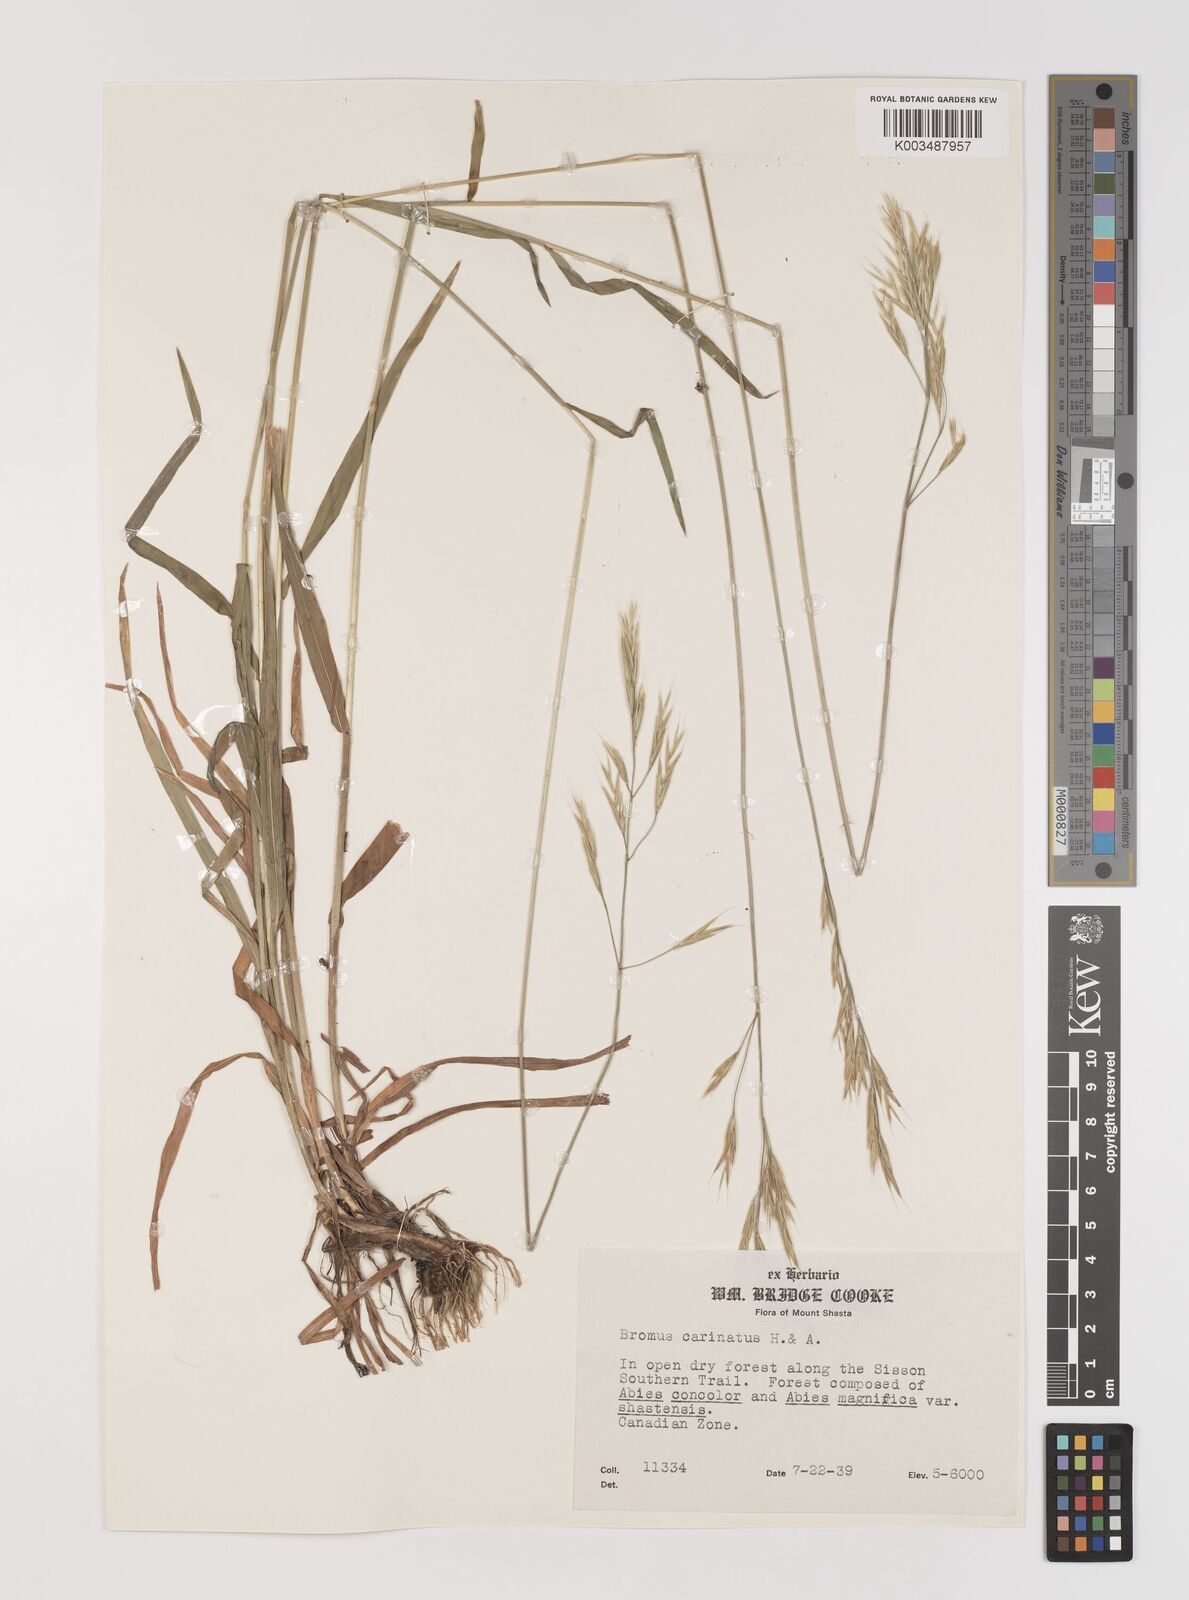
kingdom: Plantae
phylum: Tracheophyta
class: Liliopsida
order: Poales
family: Poaceae
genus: Bromus
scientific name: Bromus marginatus
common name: Western brome
